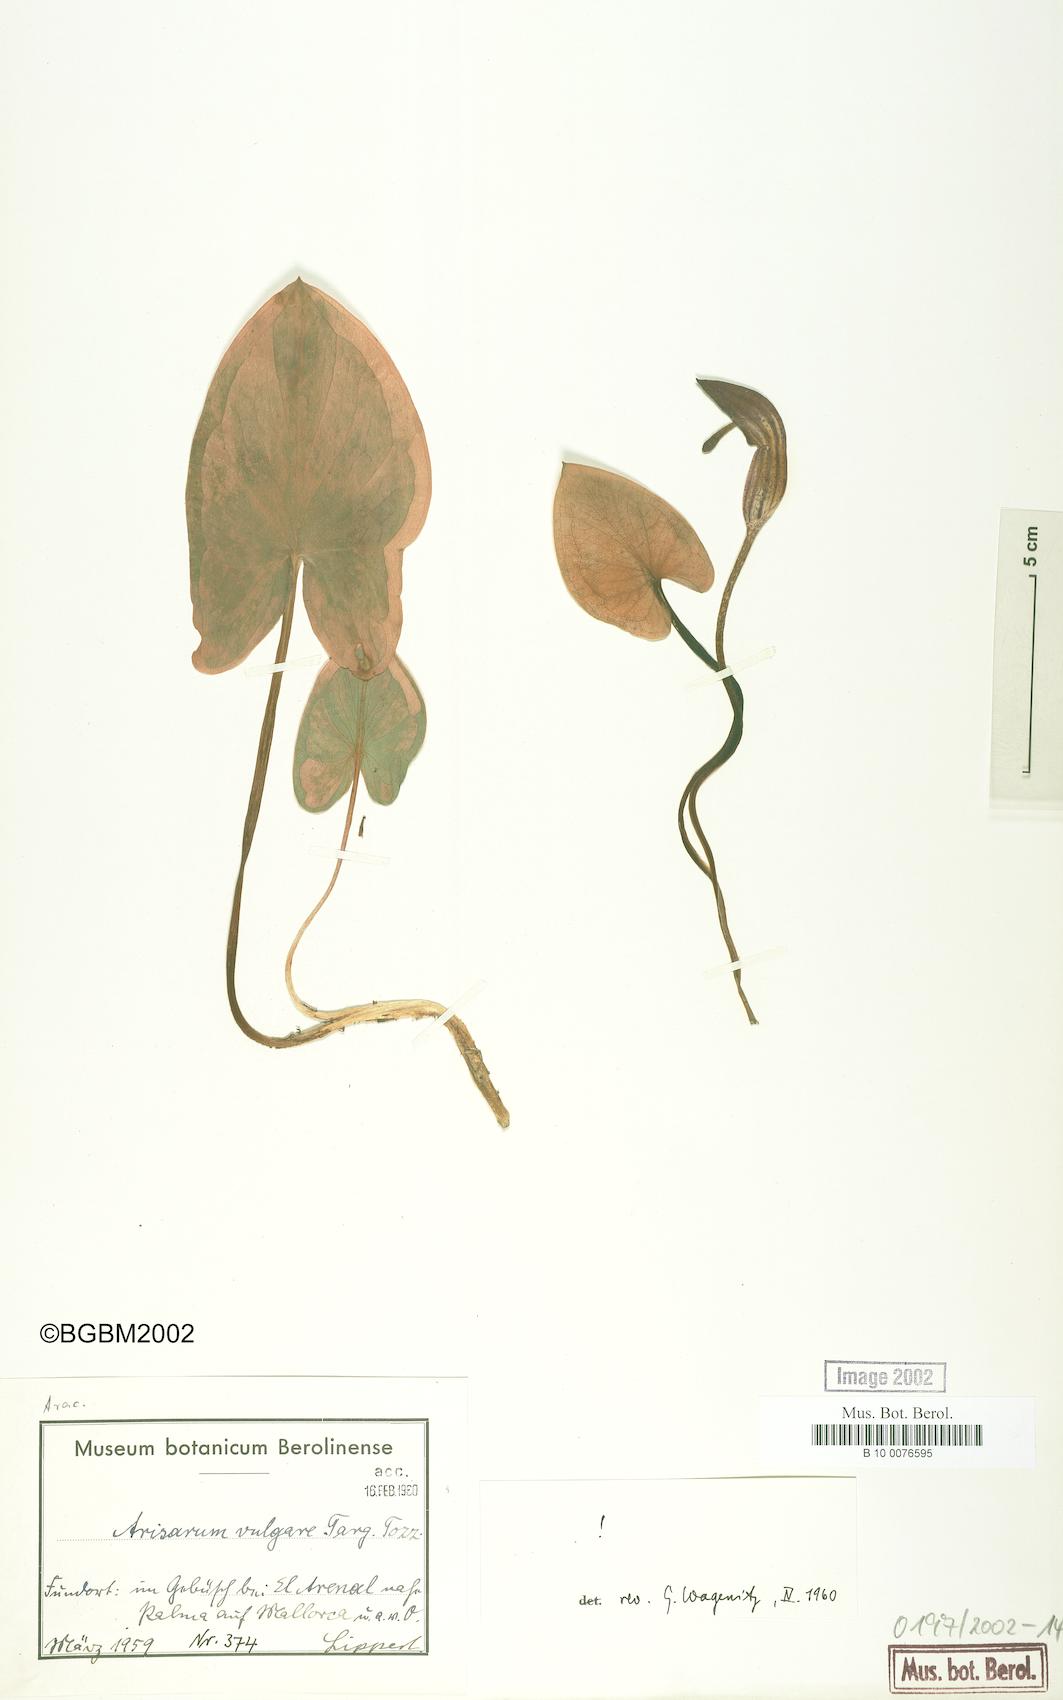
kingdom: Plantae
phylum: Tracheophyta
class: Liliopsida
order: Alismatales
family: Araceae
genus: Arisarum
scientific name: Arisarum vulgare
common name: Common arisarum
